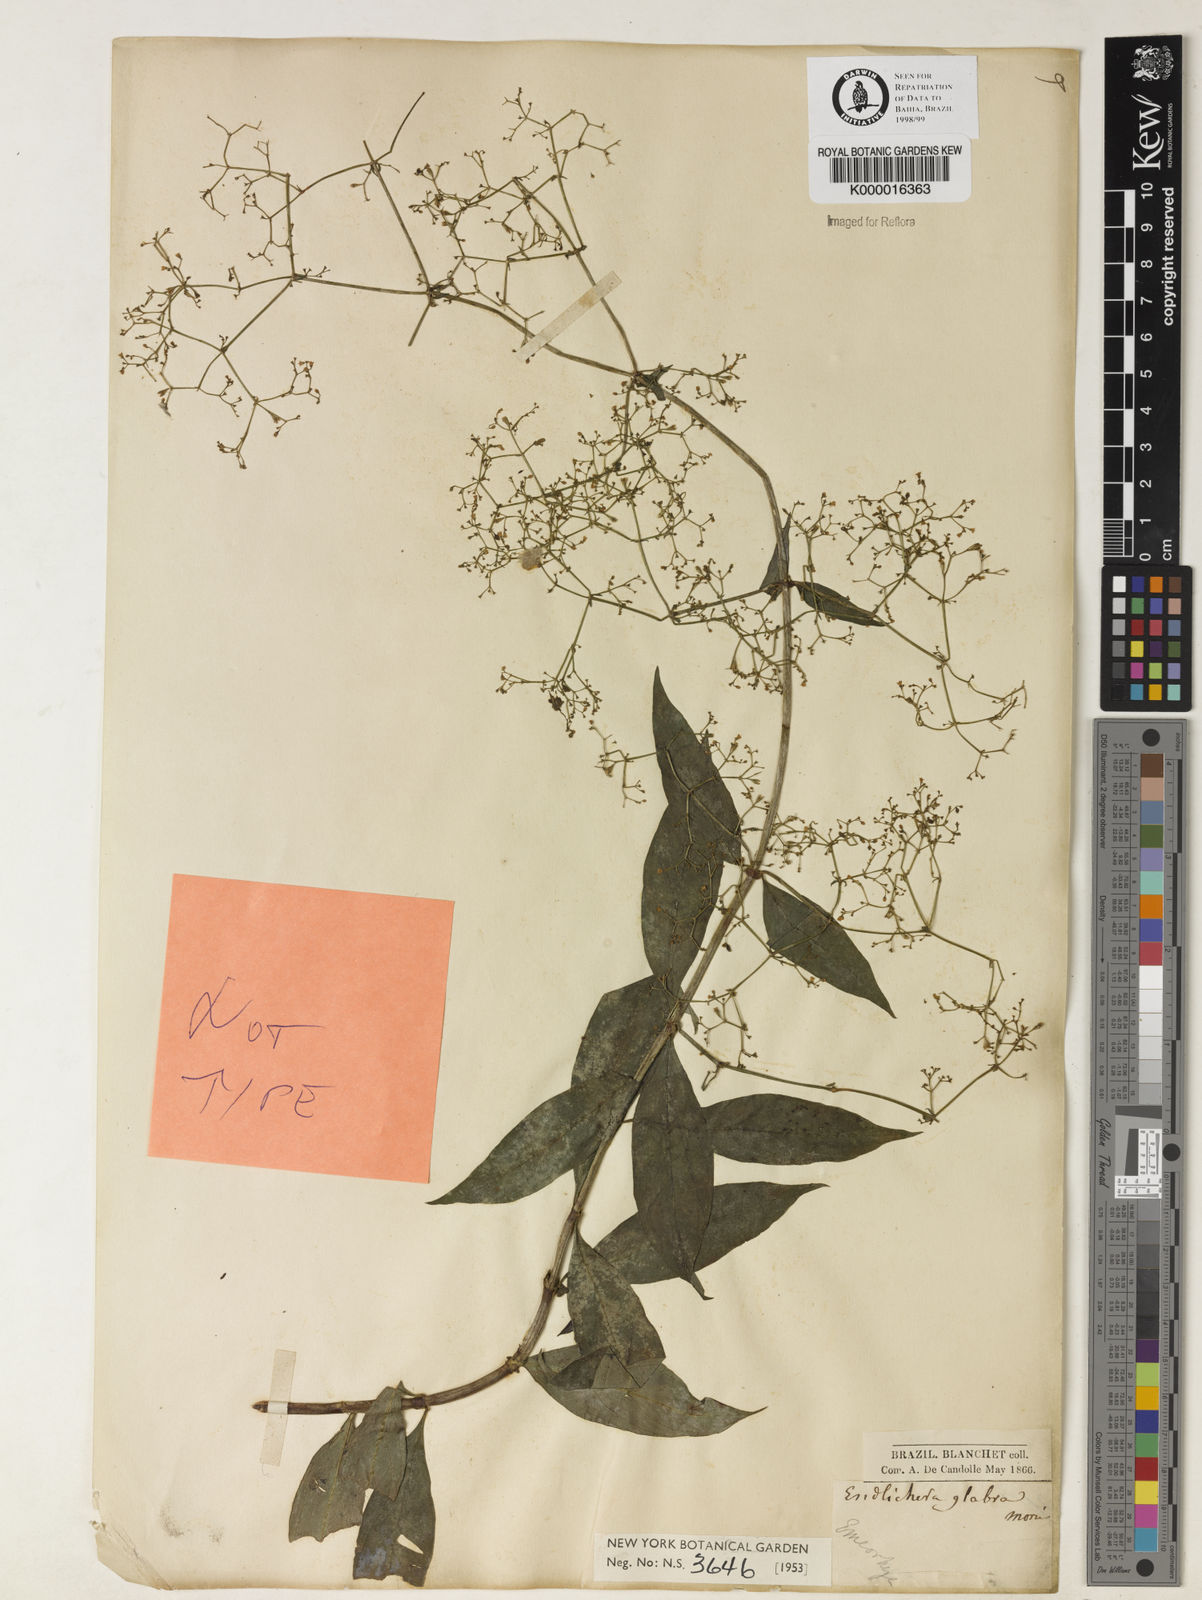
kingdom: Plantae
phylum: Tracheophyta
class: Magnoliopsida
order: Gentianales
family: Rubiaceae
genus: Emmeorhiza
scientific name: Emmeorhiza umbellata
